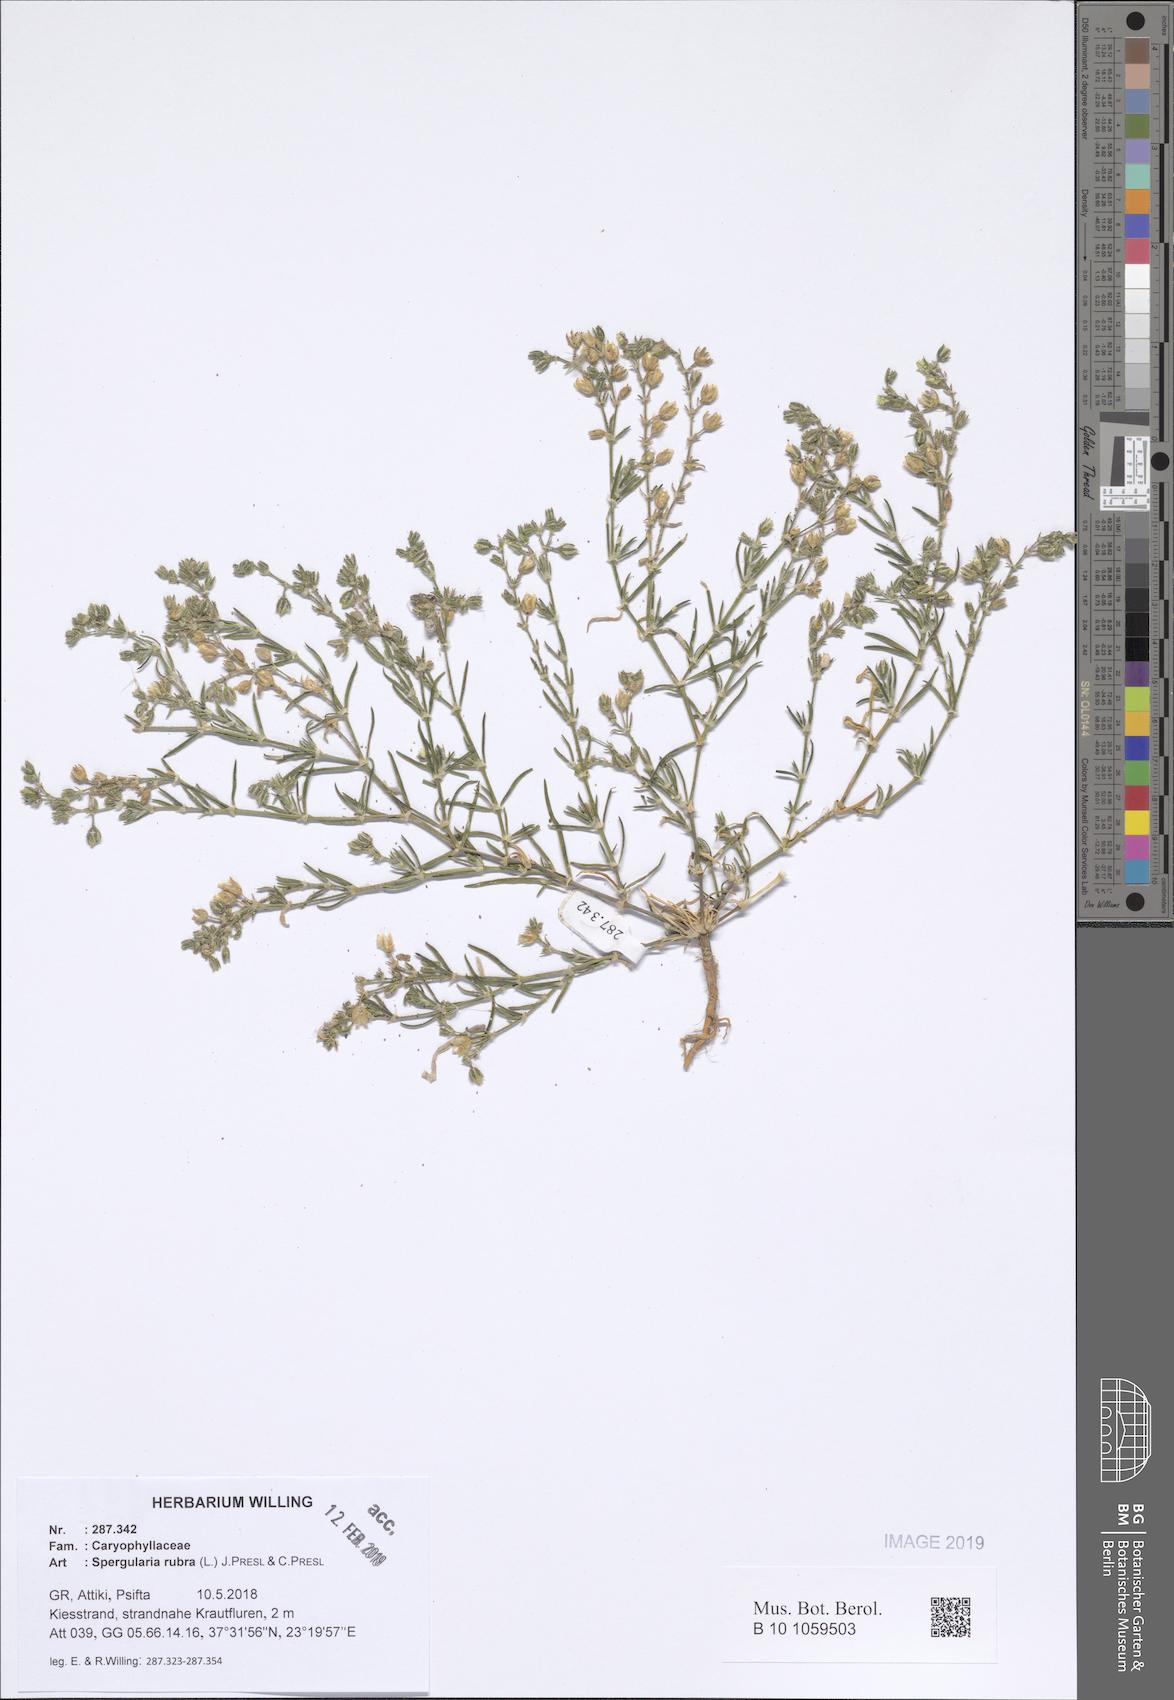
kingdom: Plantae
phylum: Tracheophyta
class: Magnoliopsida
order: Caryophyllales
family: Caryophyllaceae
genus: Spergularia
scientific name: Spergularia rubra
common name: Red sand-spurrey
